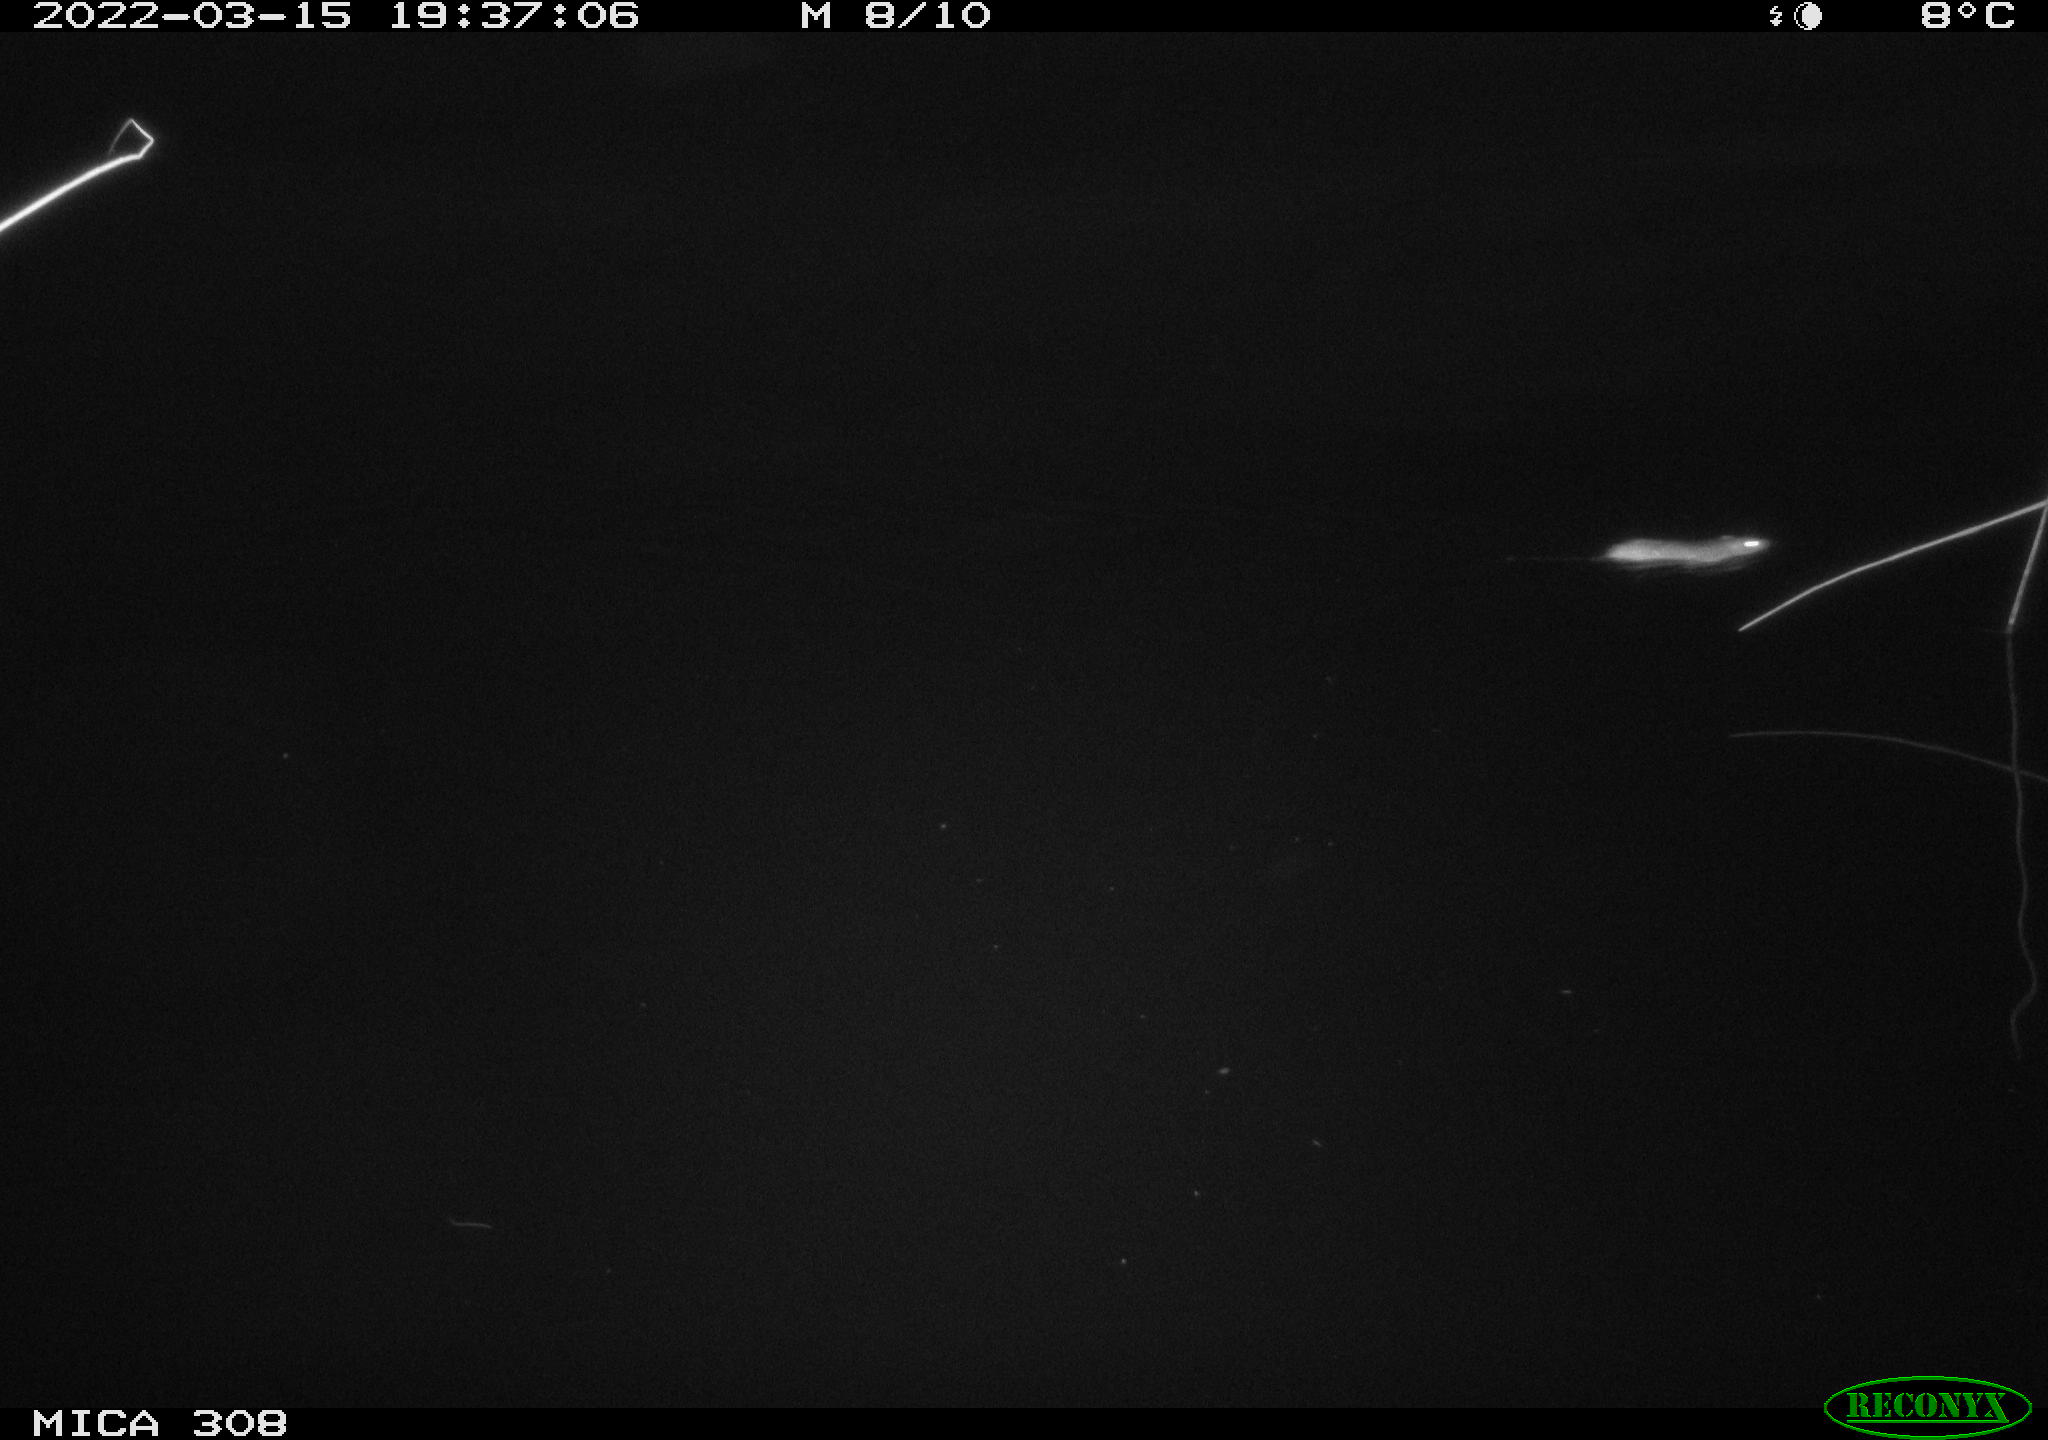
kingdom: Animalia
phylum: Chordata
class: Mammalia
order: Rodentia
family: Muridae
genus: Rattus
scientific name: Rattus norvegicus
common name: Brown rat
